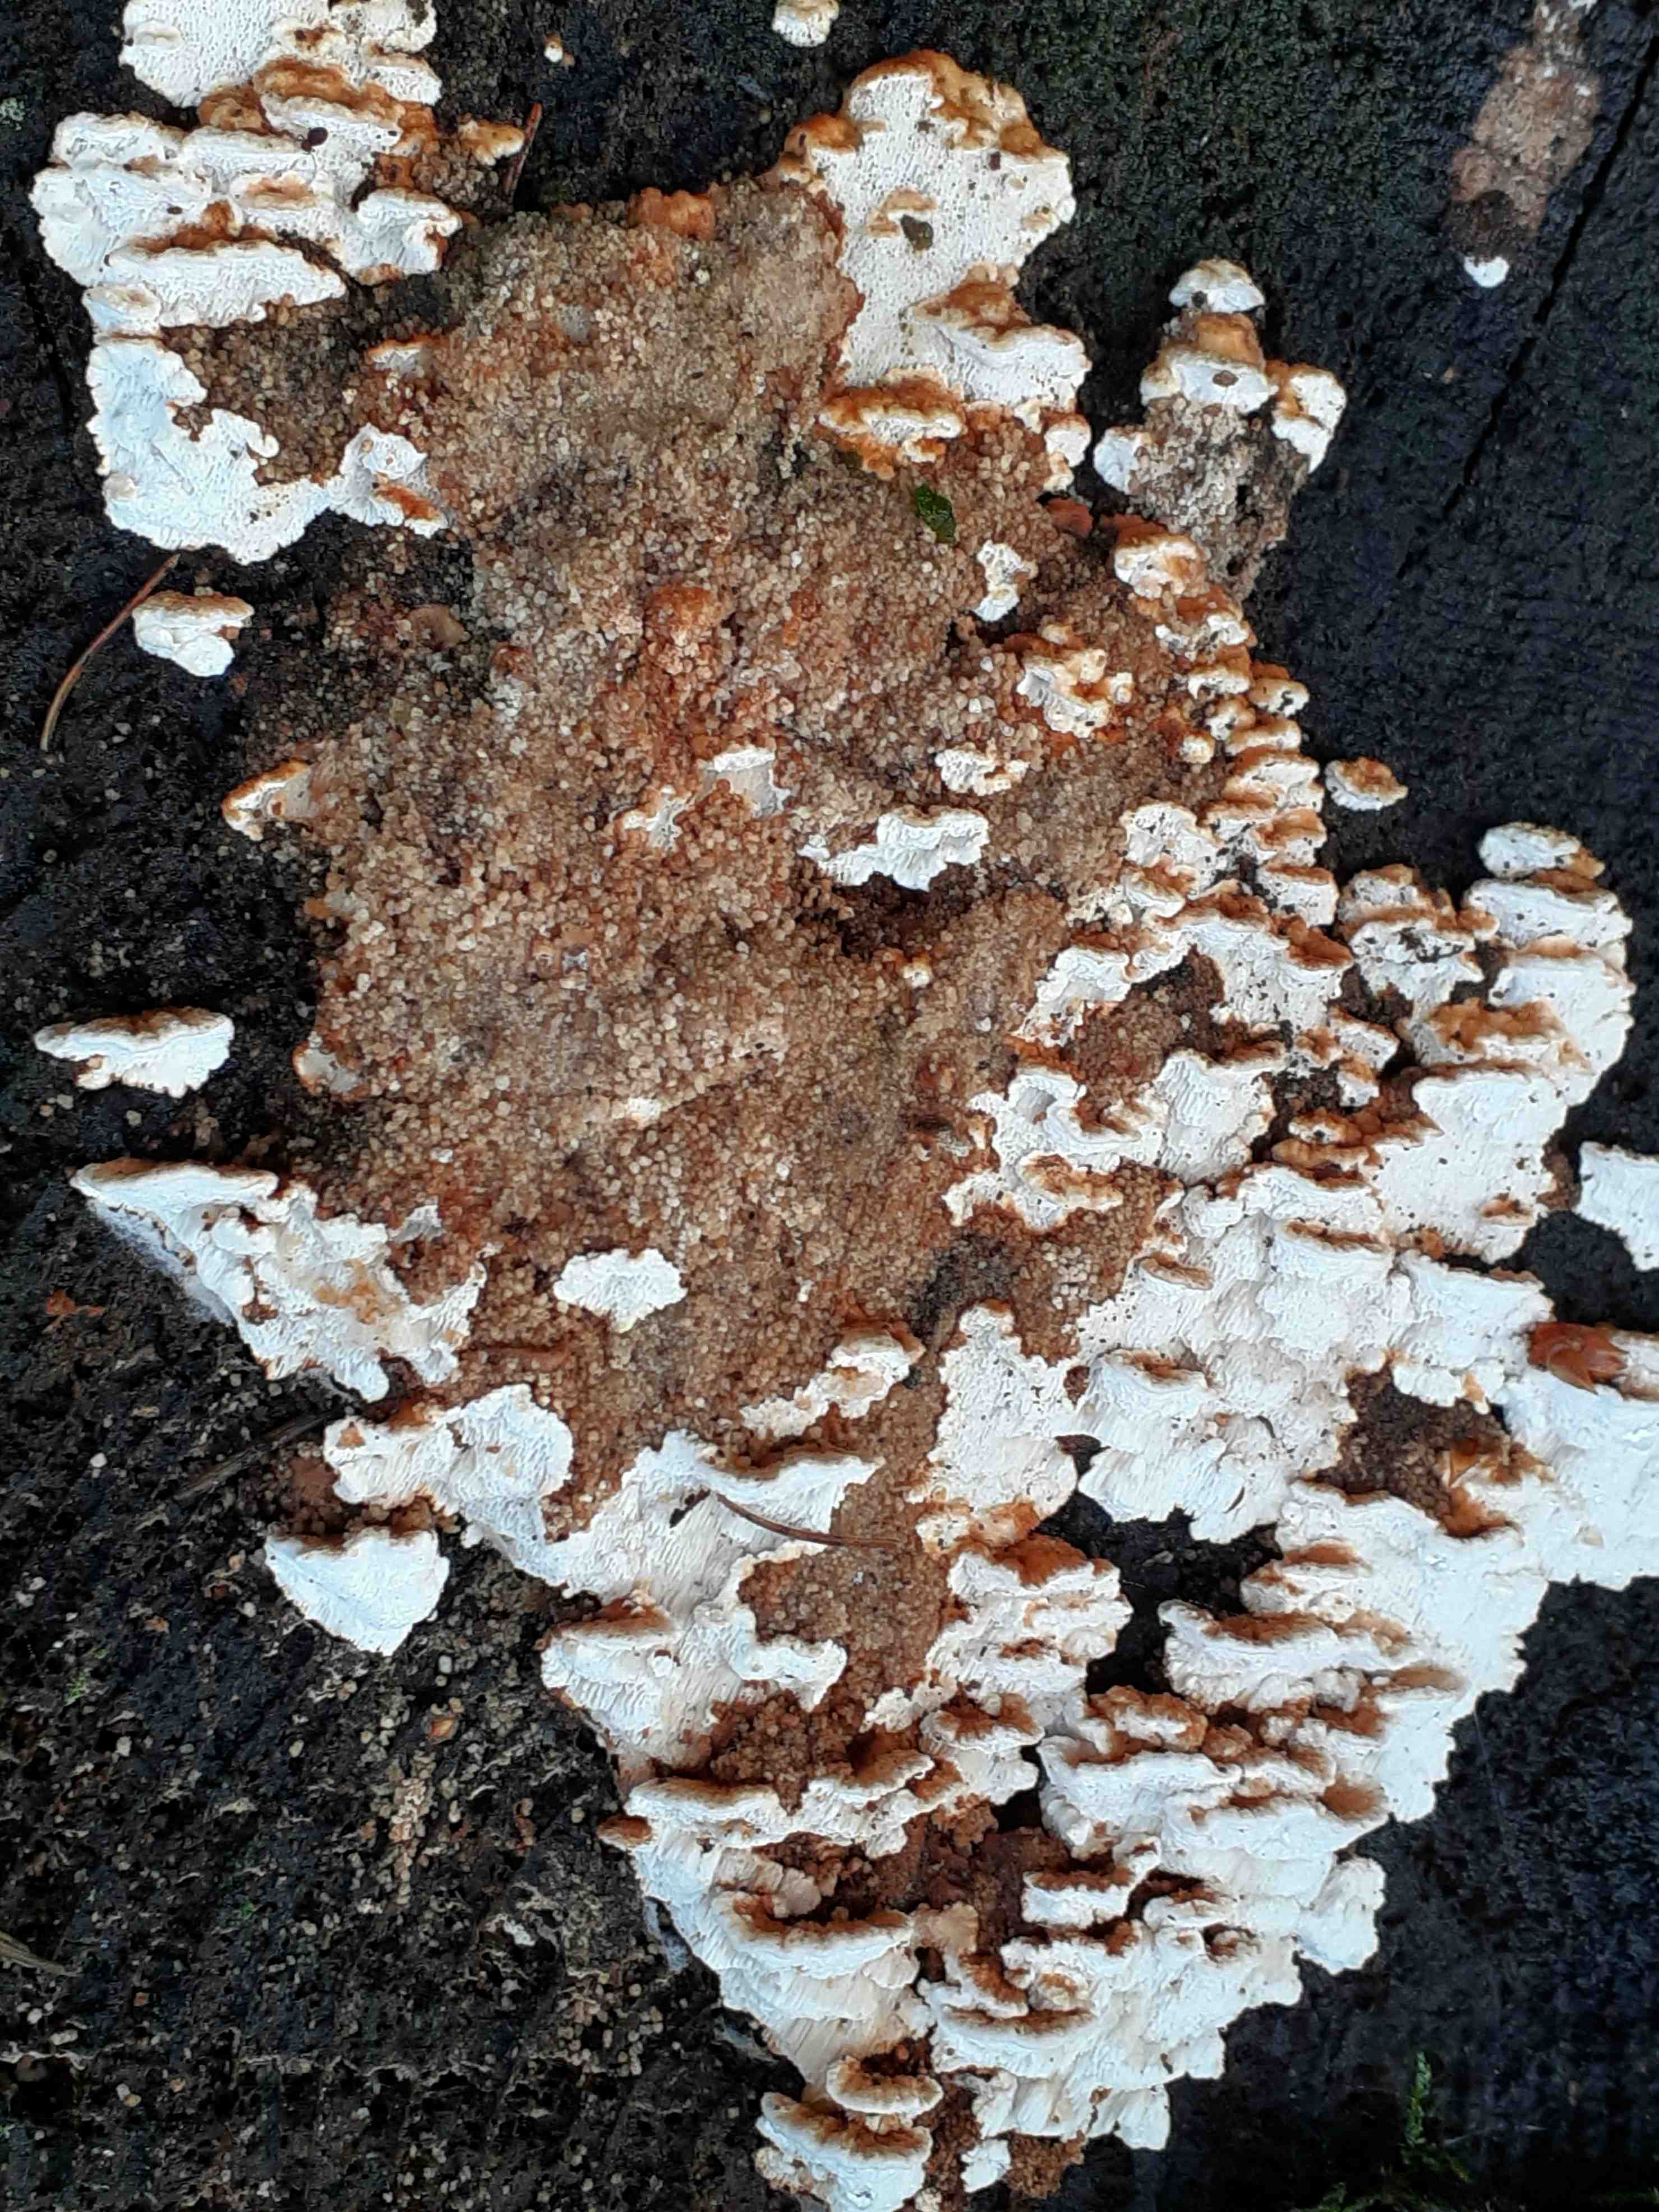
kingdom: Fungi
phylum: Basidiomycota
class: Agaricomycetes
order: Polyporales
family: Fomitopsidaceae
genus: Neoantrodia
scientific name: Neoantrodia serialis
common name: række-sejporesvamp
